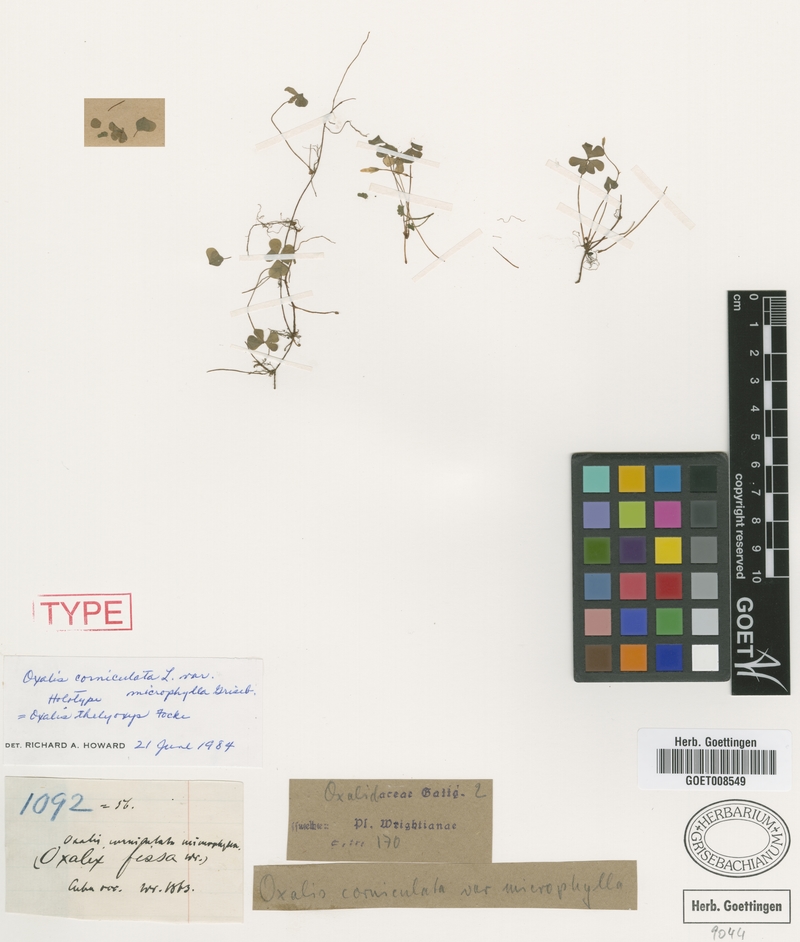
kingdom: Plantae
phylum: Tracheophyta
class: Magnoliopsida
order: Oxalidales
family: Oxalidaceae
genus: Oxalis
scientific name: Oxalis thelyoxys
